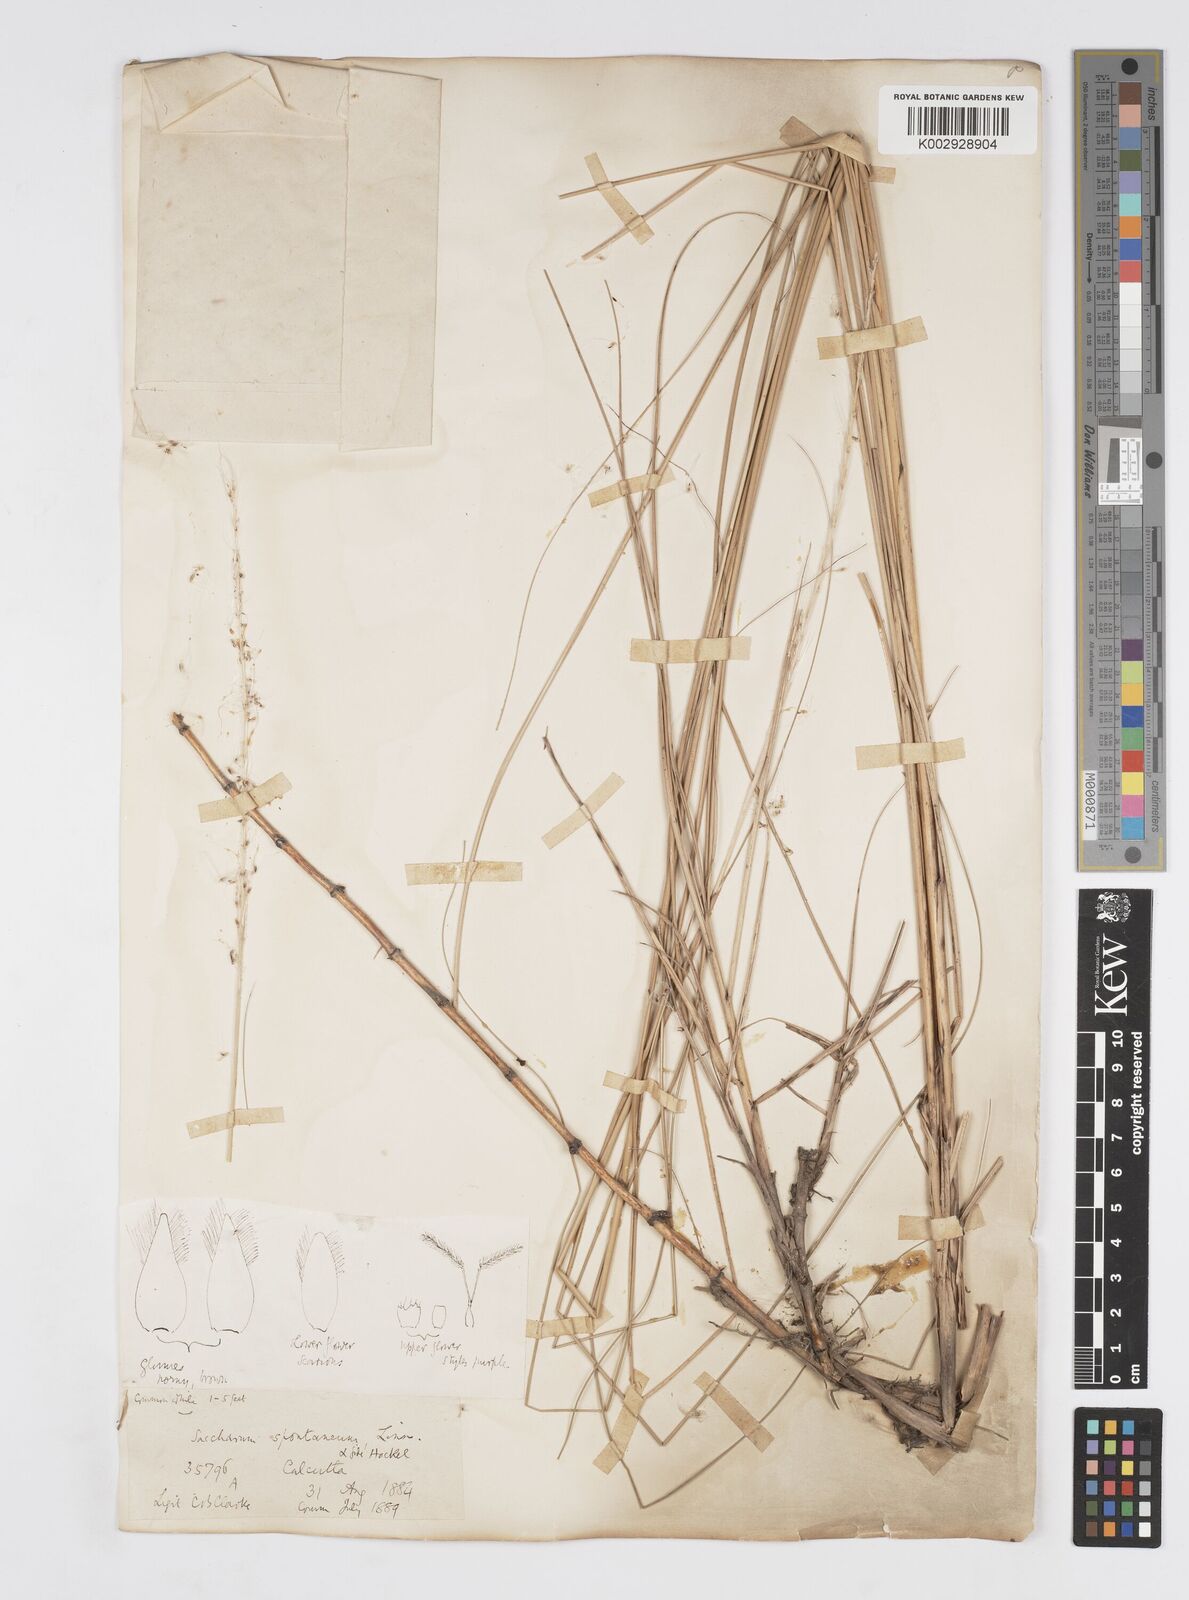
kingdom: Plantae
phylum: Tracheophyta
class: Liliopsida
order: Poales
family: Poaceae
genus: Saccharum
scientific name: Saccharum spontaneum
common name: Wild sugarcane
